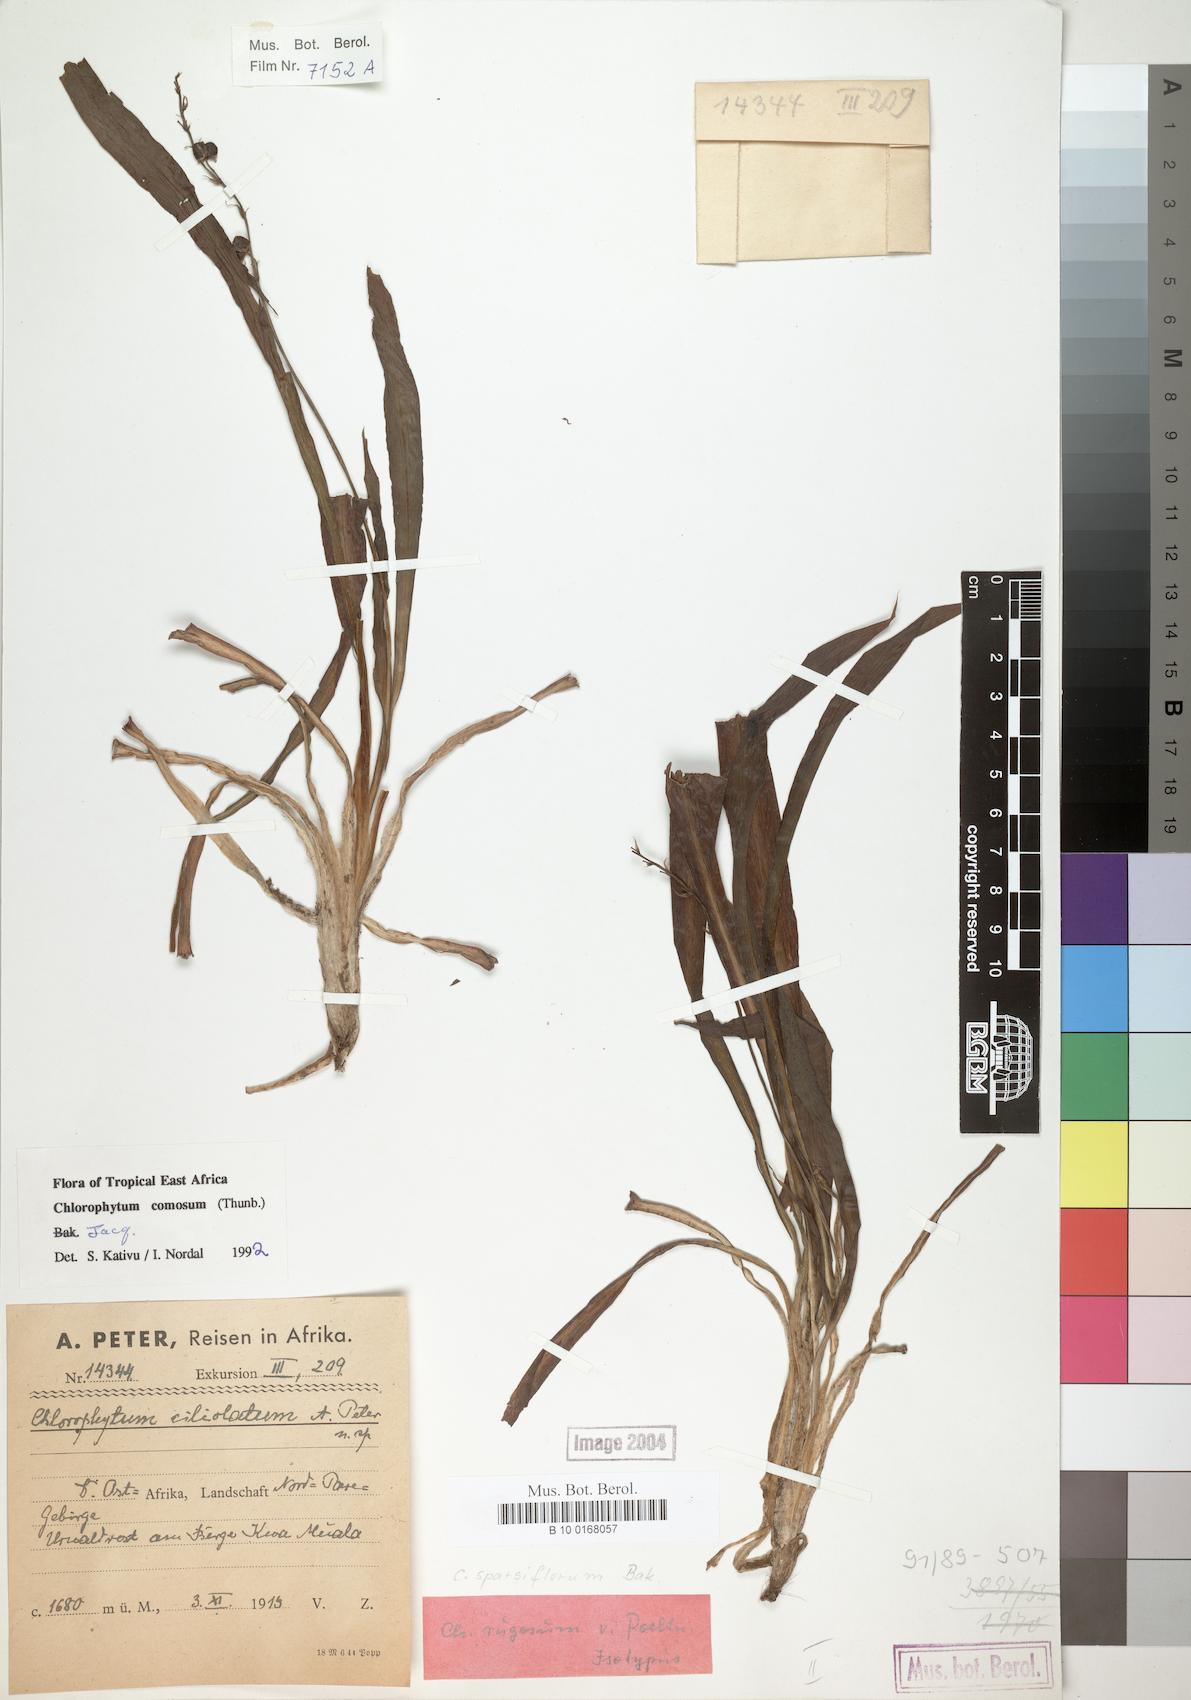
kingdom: Plantae
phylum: Tracheophyta
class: Liliopsida
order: Asparagales
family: Asparagaceae
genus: Chlorophytum
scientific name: Chlorophytum comosum
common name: Spider plant
